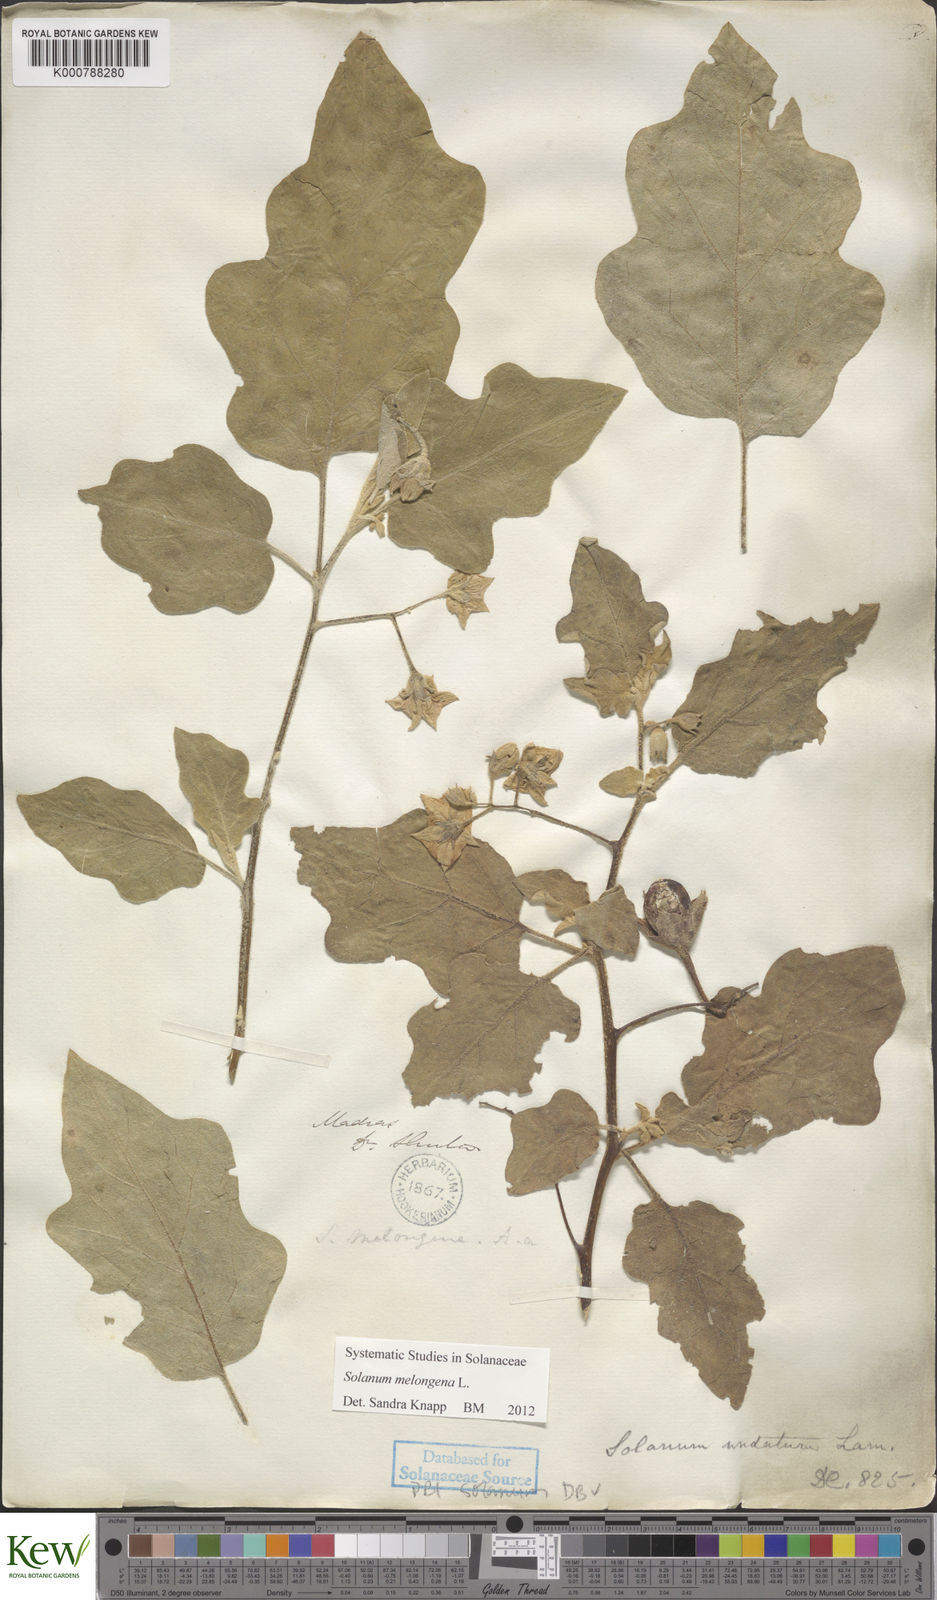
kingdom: Plantae
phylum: Tracheophyta
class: Magnoliopsida
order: Solanales
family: Solanaceae
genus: Solanum
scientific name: Solanum melongena
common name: Eggplant
